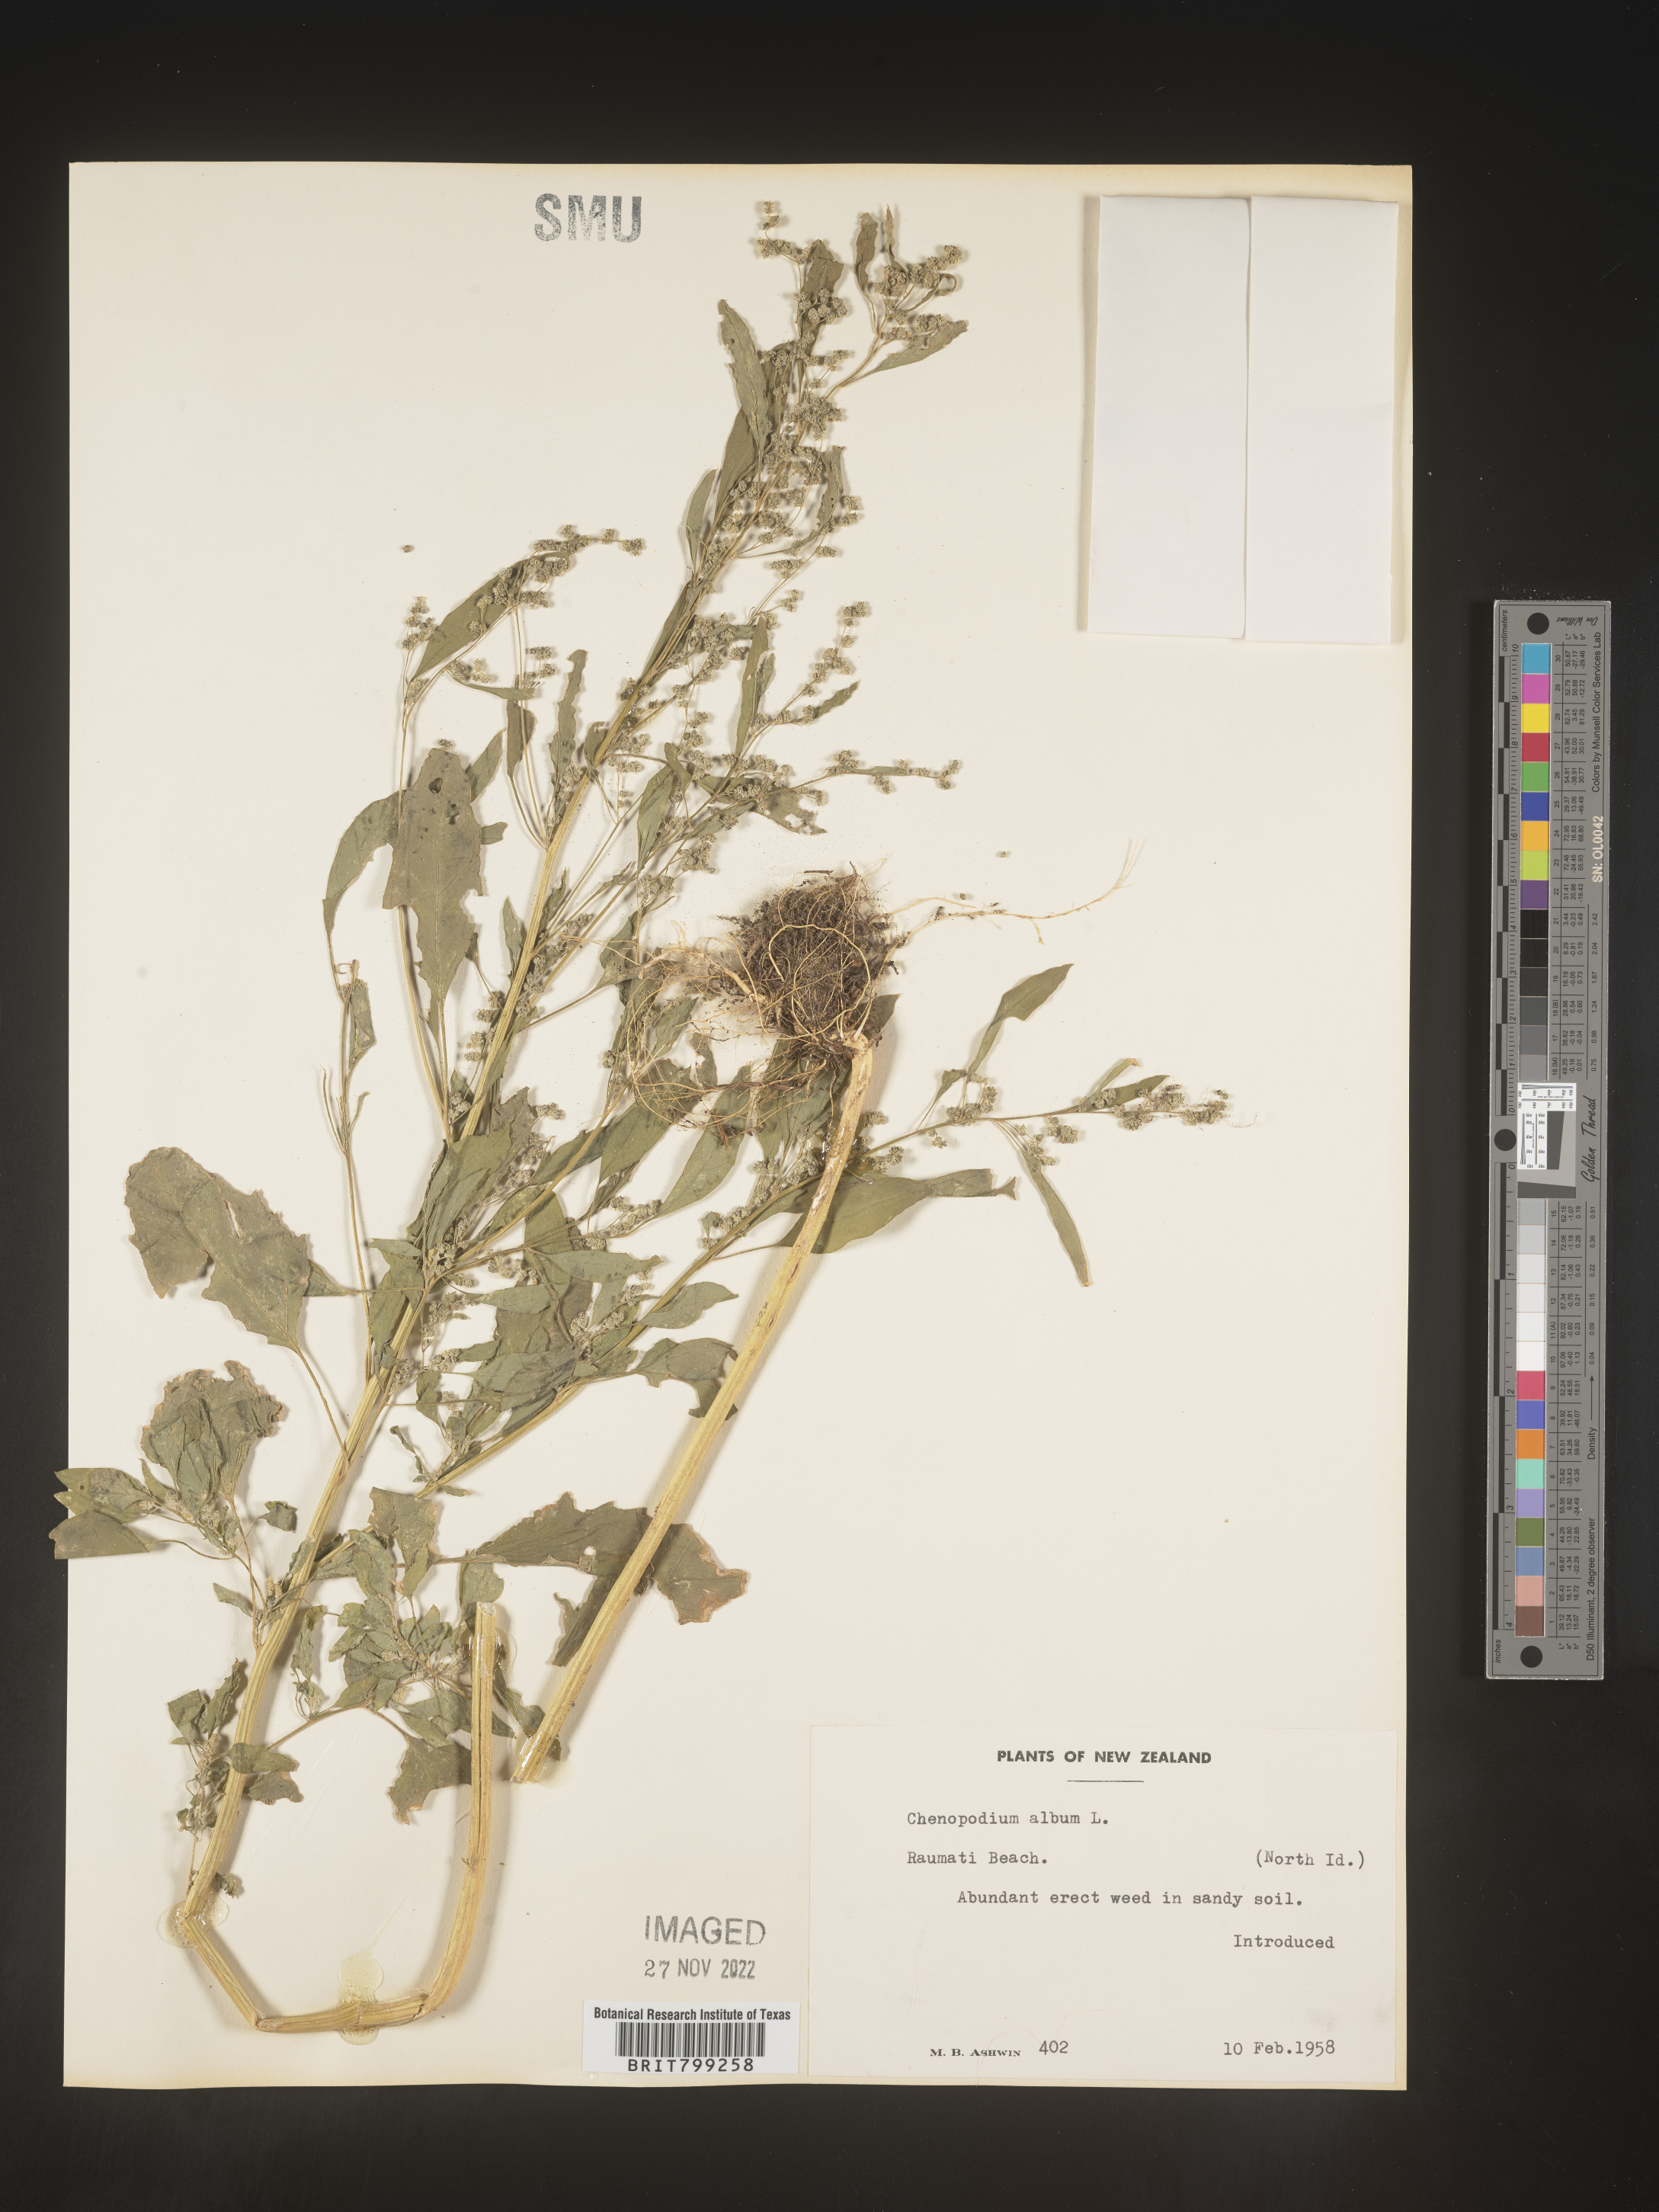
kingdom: Plantae
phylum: Tracheophyta
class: Magnoliopsida
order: Caryophyllales
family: Amaranthaceae
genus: Chenopodium
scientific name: Chenopodium
